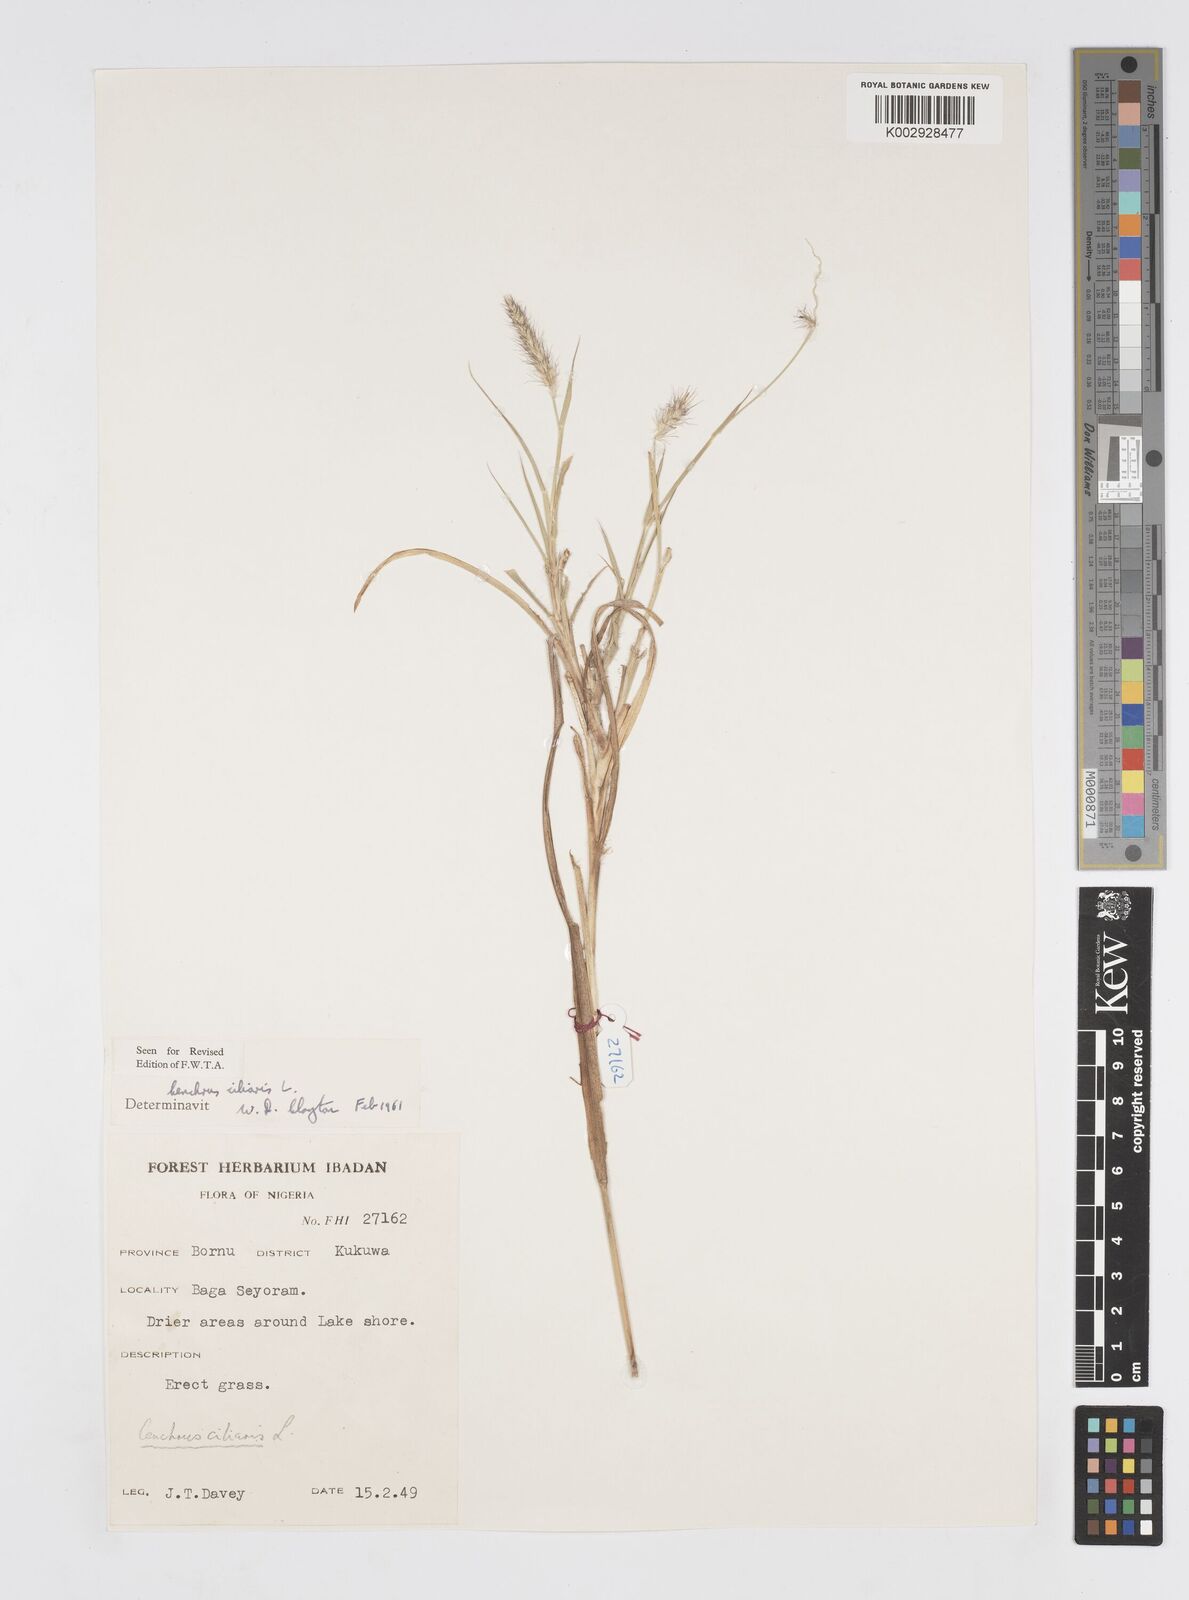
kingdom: Plantae
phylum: Tracheophyta
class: Liliopsida
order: Poales
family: Poaceae
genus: Cenchrus
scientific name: Cenchrus ciliaris
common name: Buffelgrass
